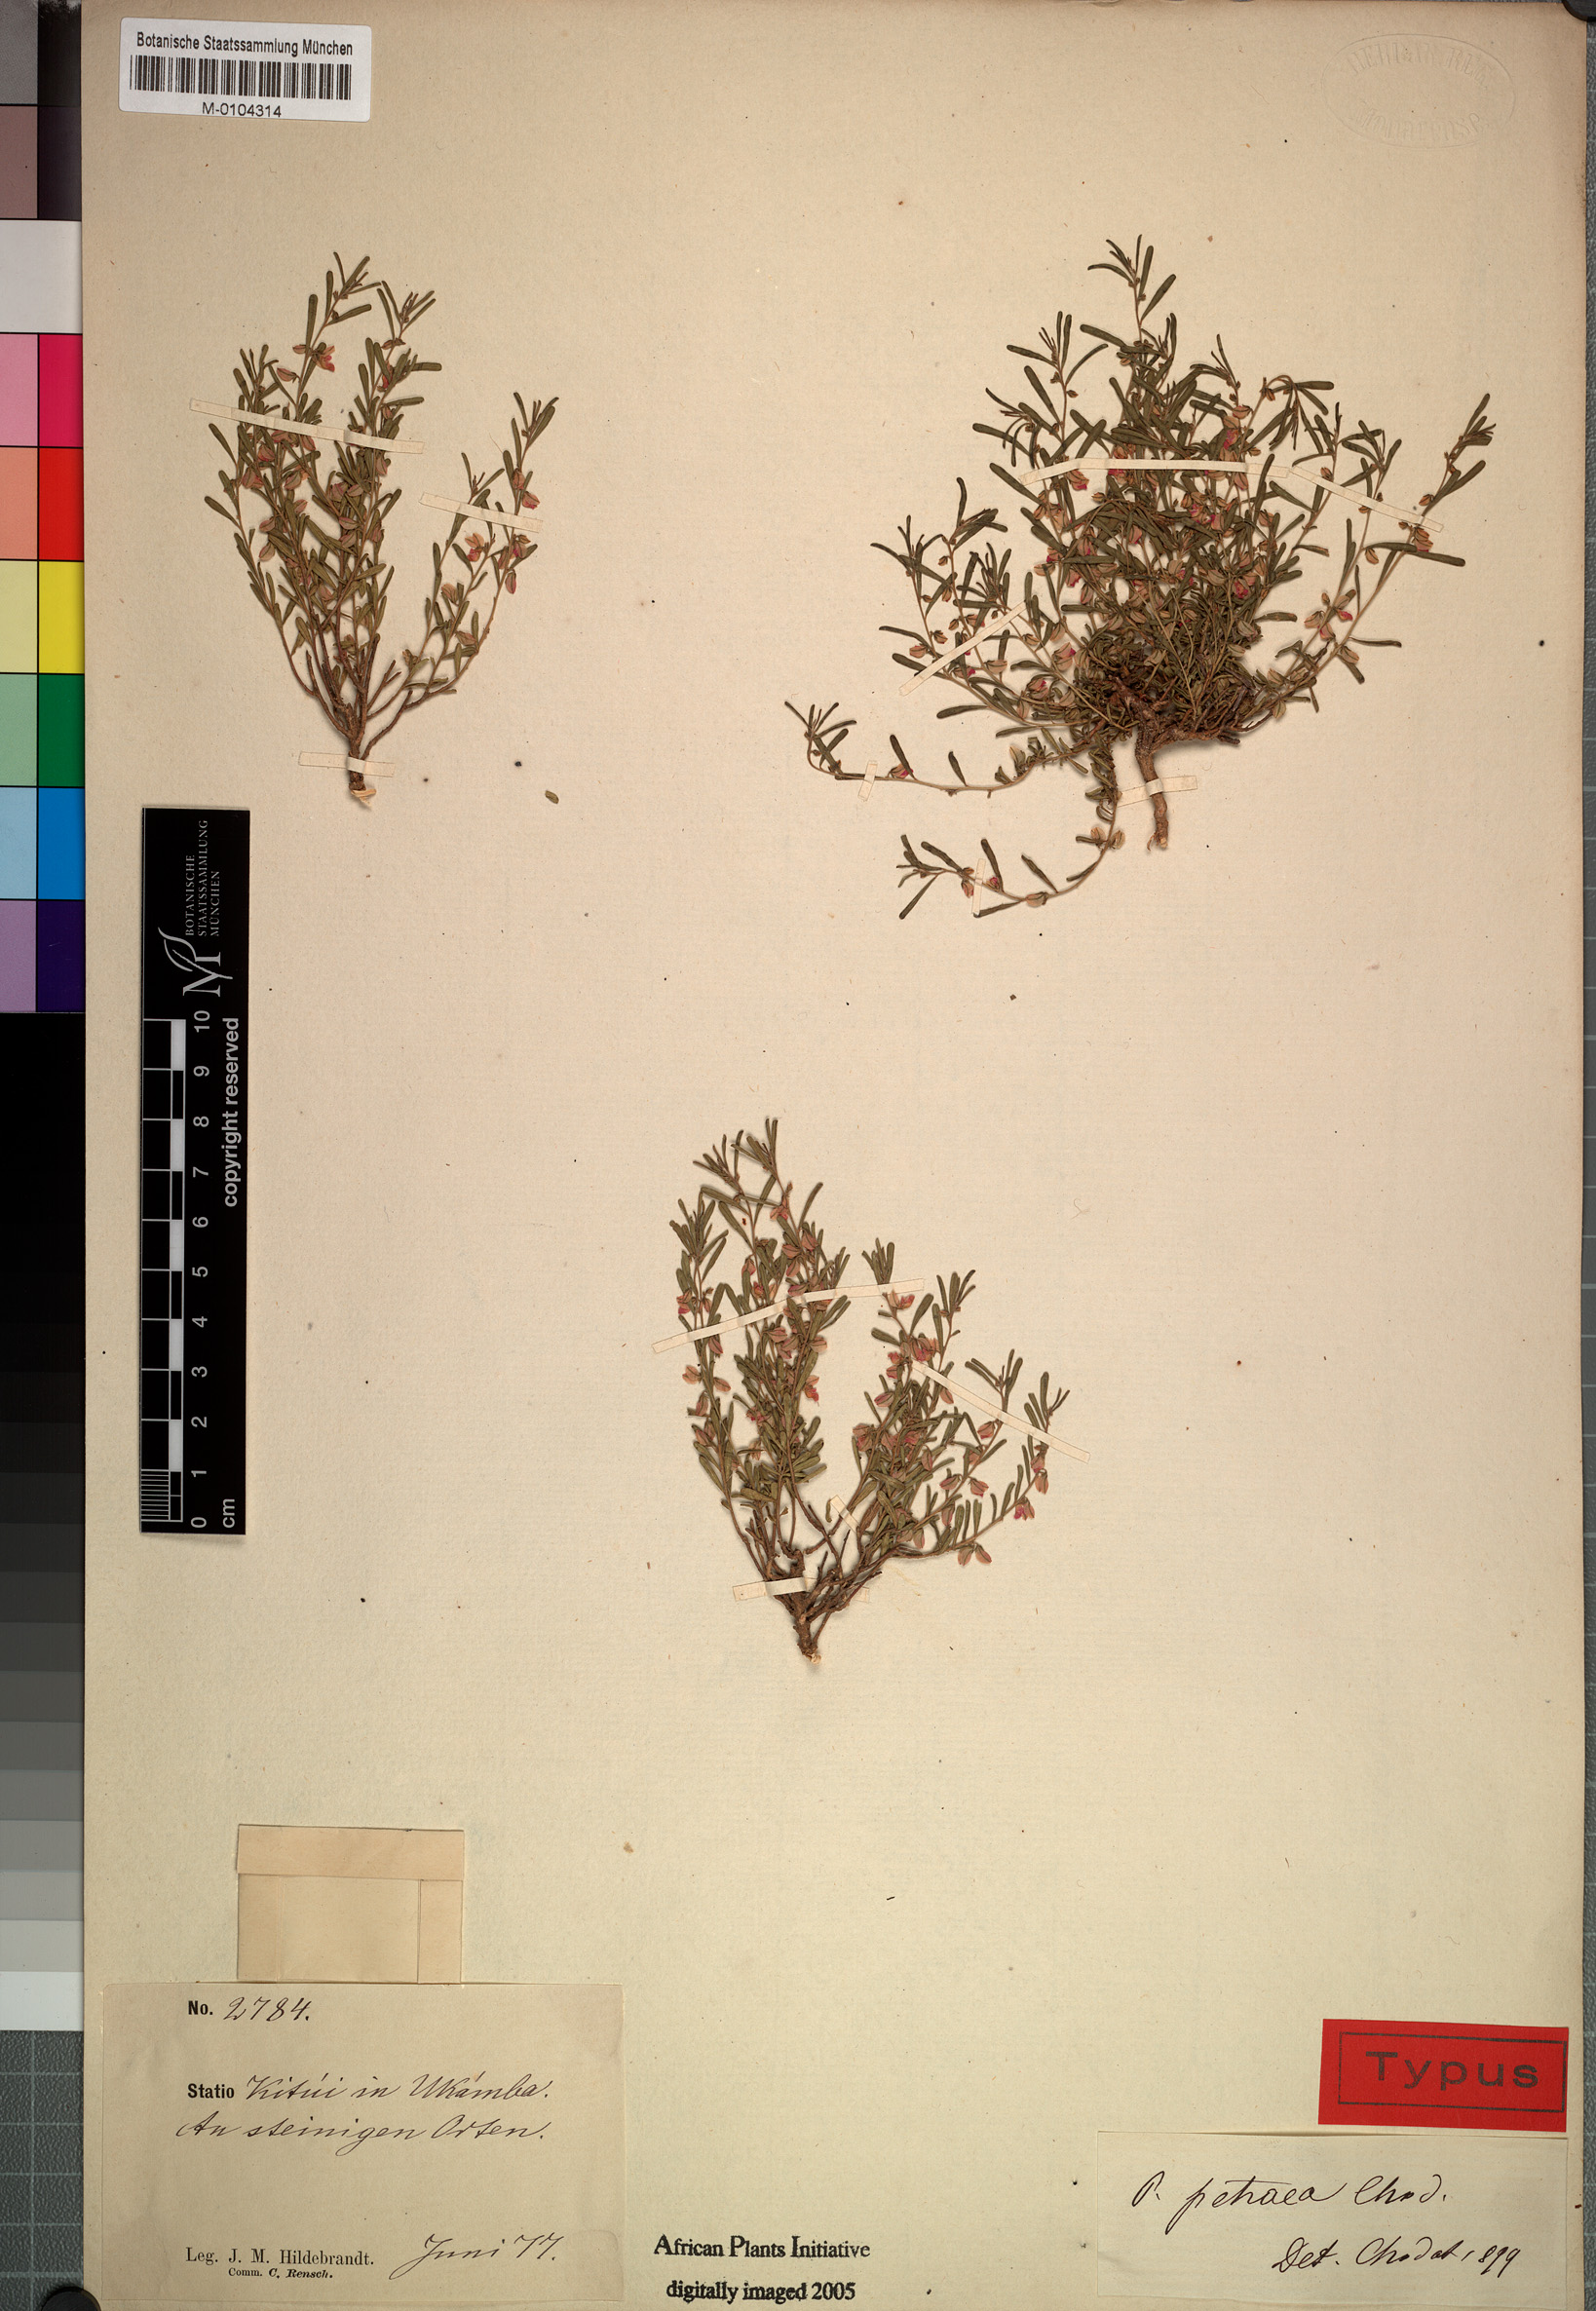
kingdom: Plantae
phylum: Tracheophyta
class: Magnoliopsida
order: Fabales
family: Polygalaceae
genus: Polygala
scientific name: Polygala erioptera
